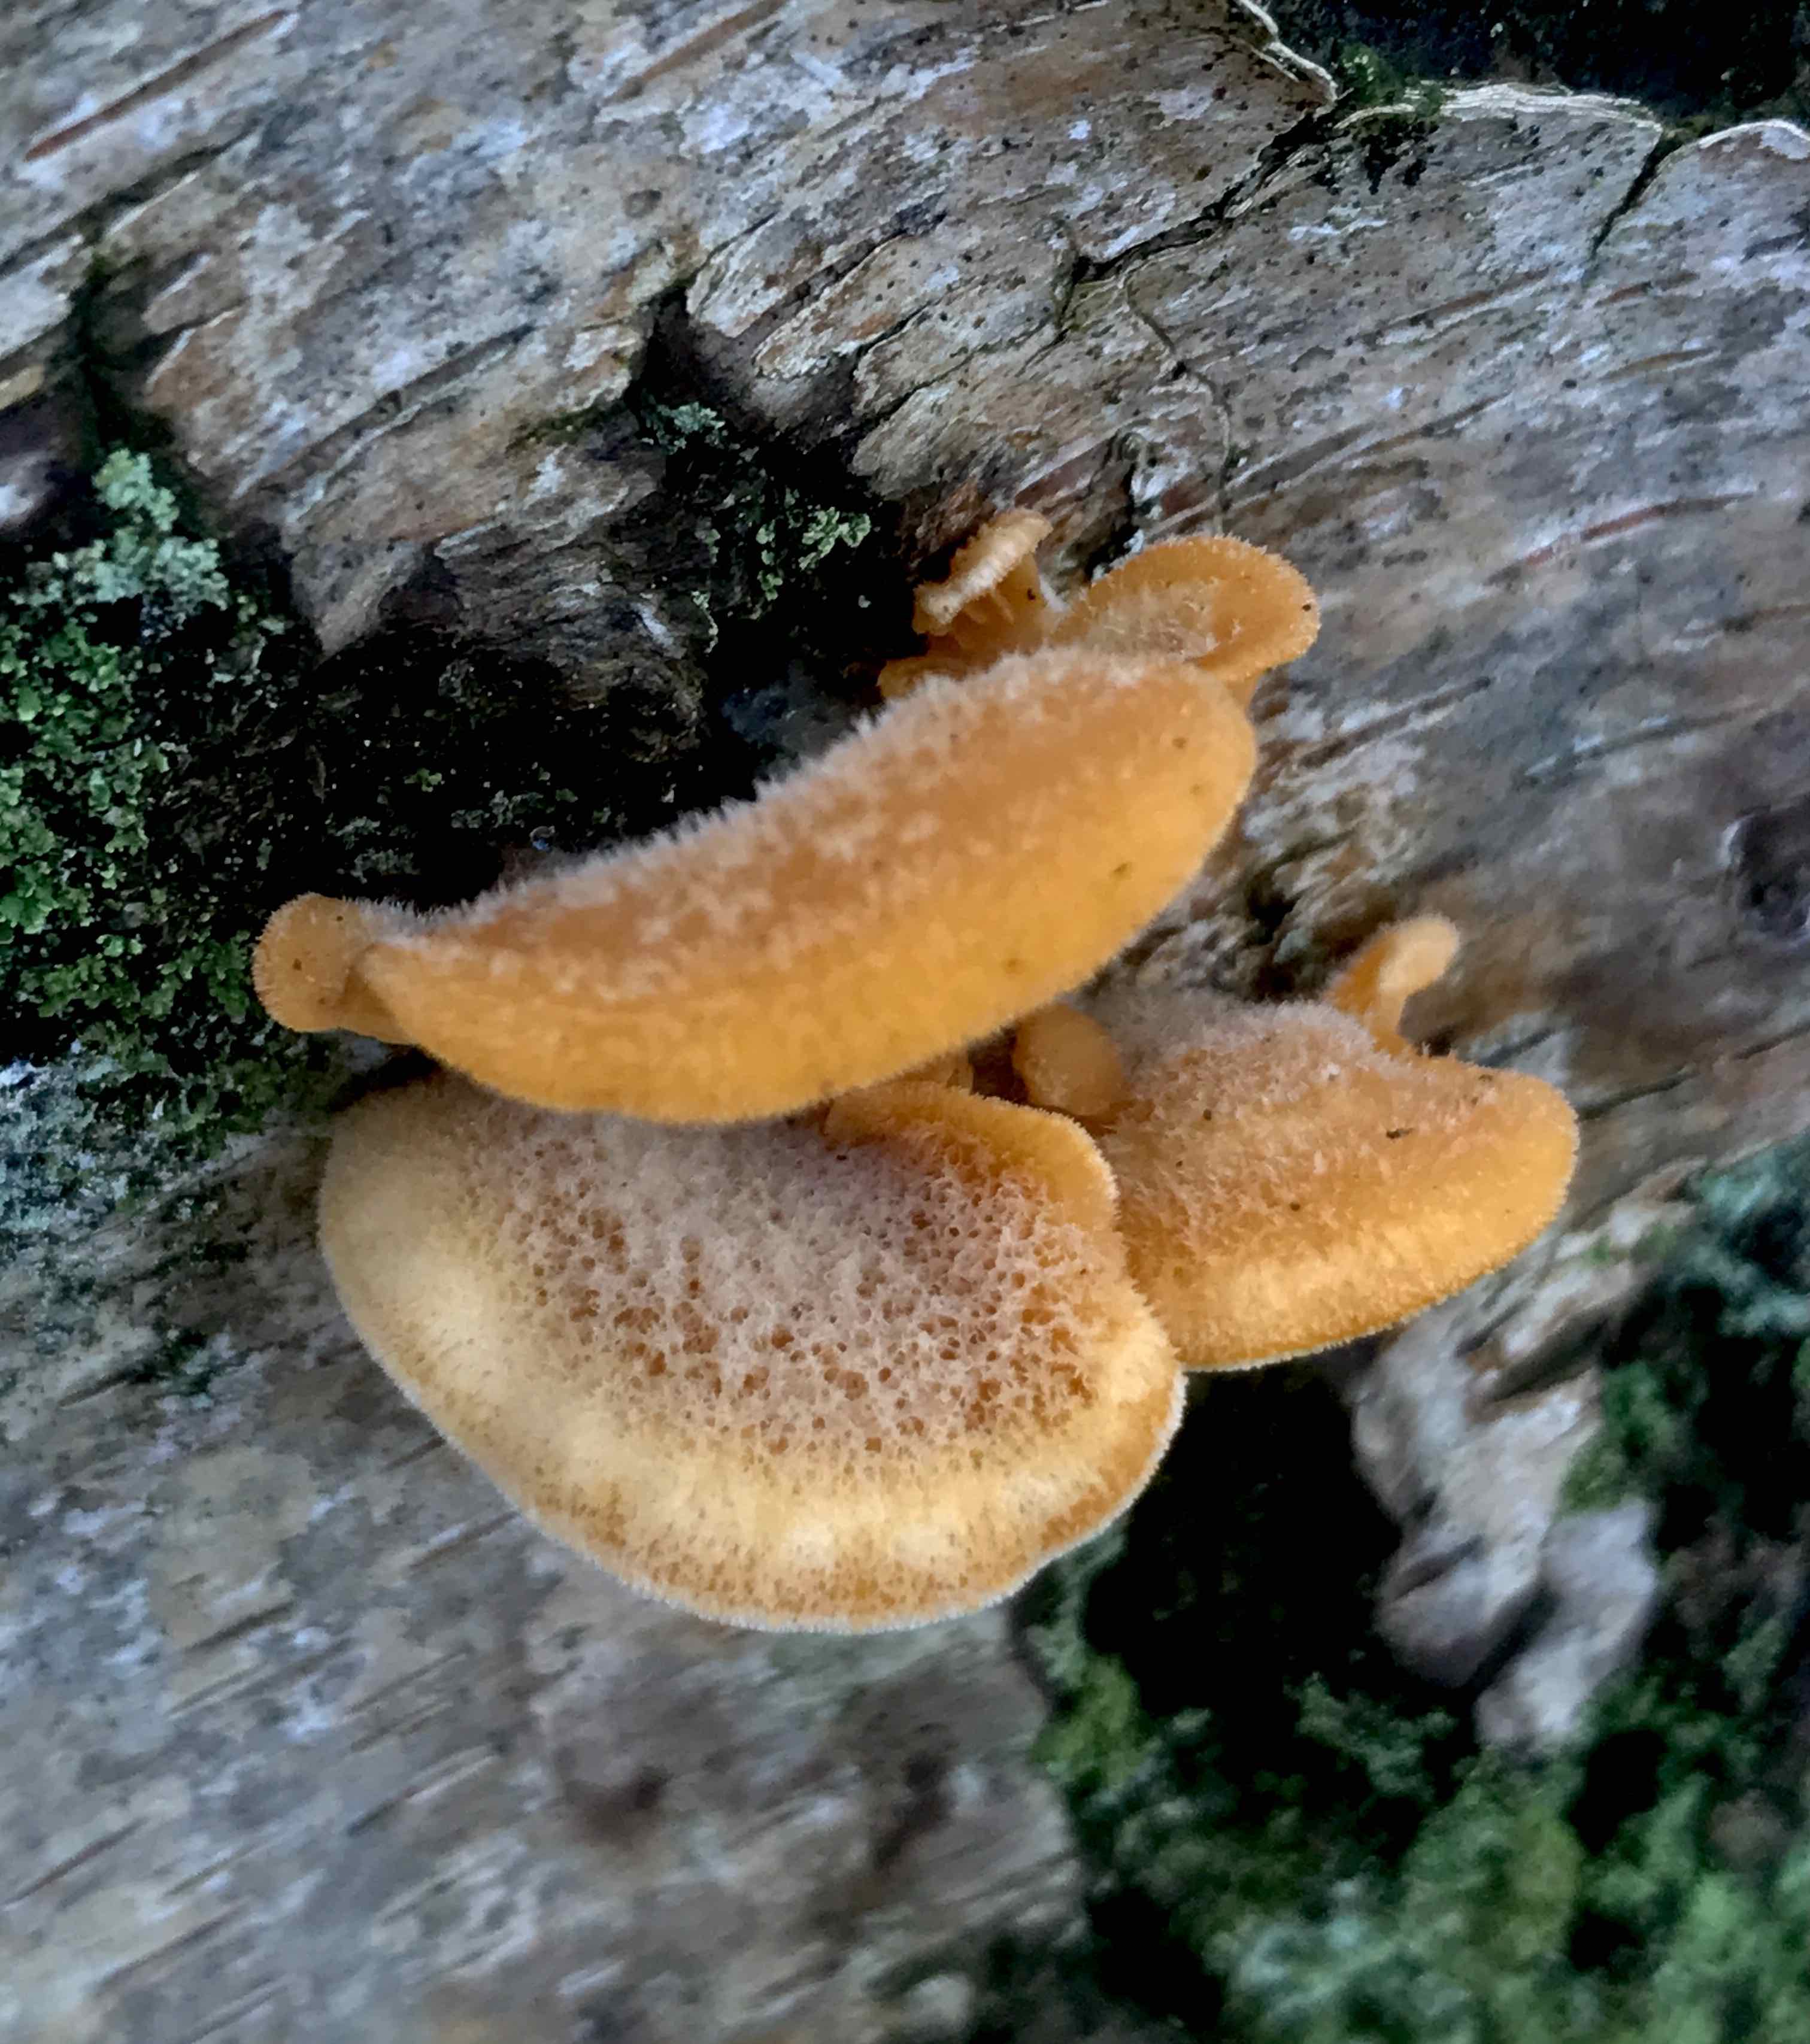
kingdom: Fungi
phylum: Basidiomycota
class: Agaricomycetes
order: Agaricales
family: Phyllotopsidaceae
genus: Phyllotopsis
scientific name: Phyllotopsis nidulans
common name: okkerblad
